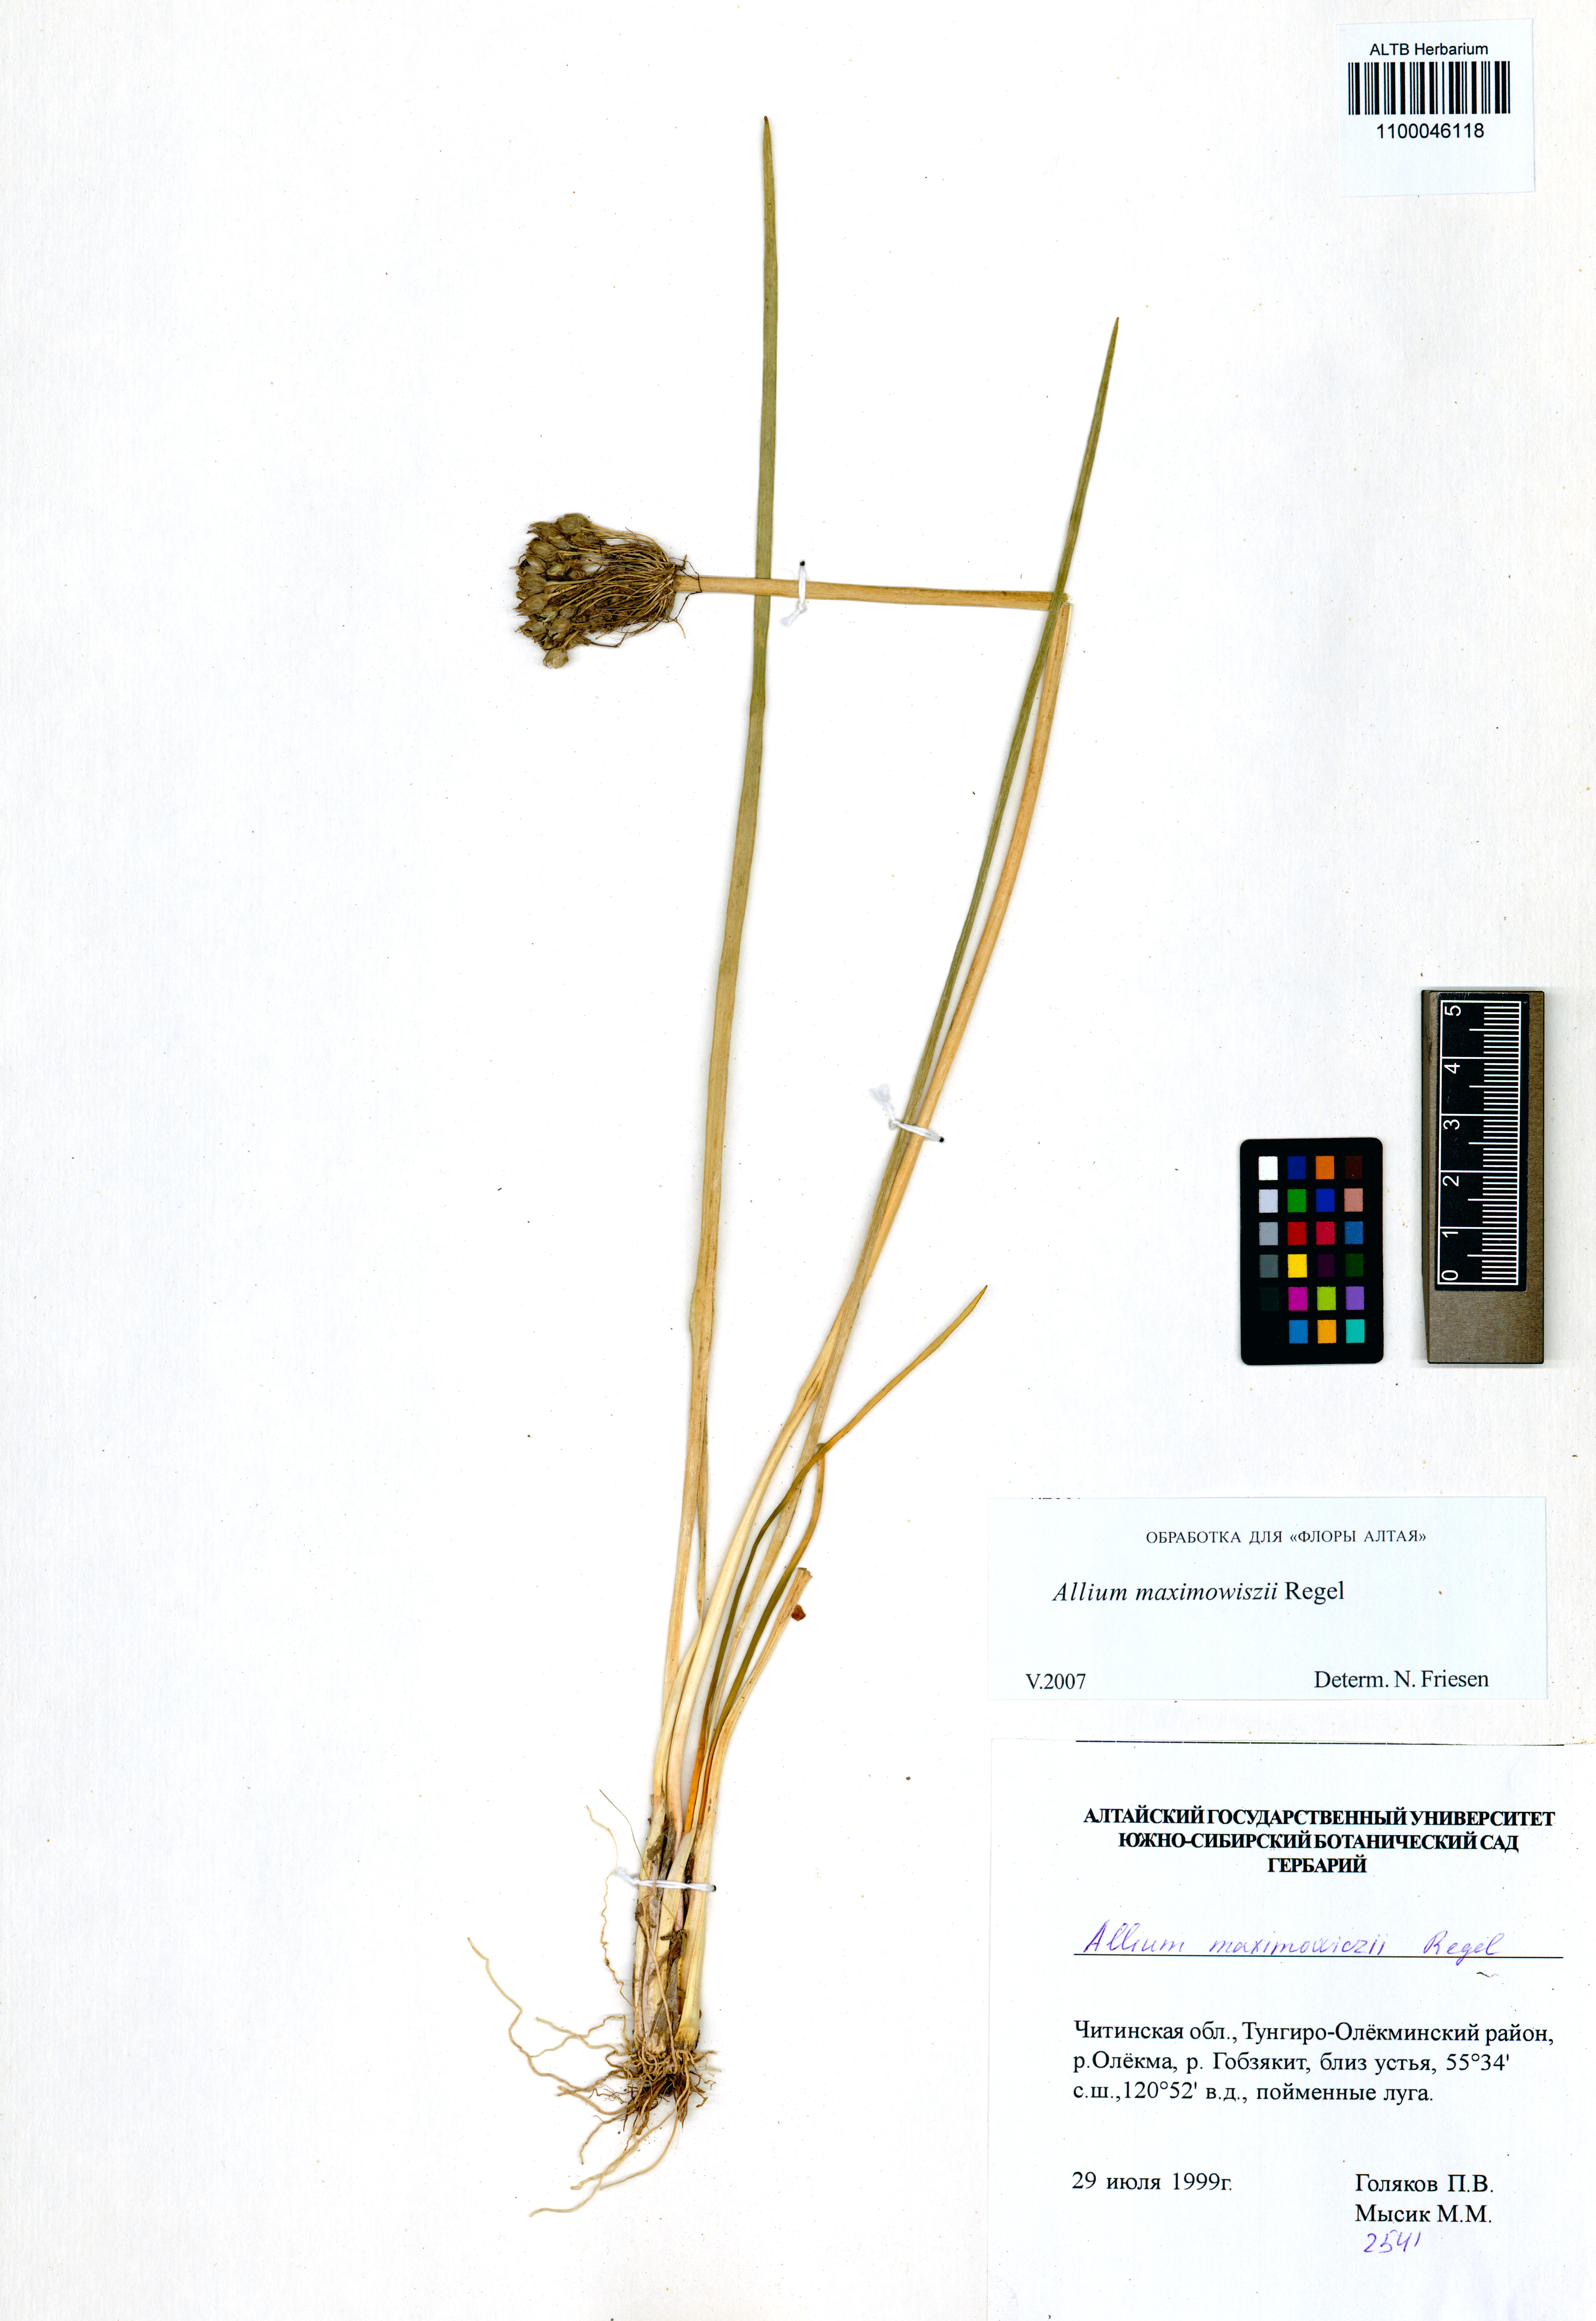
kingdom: Plantae
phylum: Tracheophyta
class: Liliopsida
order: Asparagales
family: Amaryllidaceae
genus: Allium
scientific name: Allium maximowiczii
